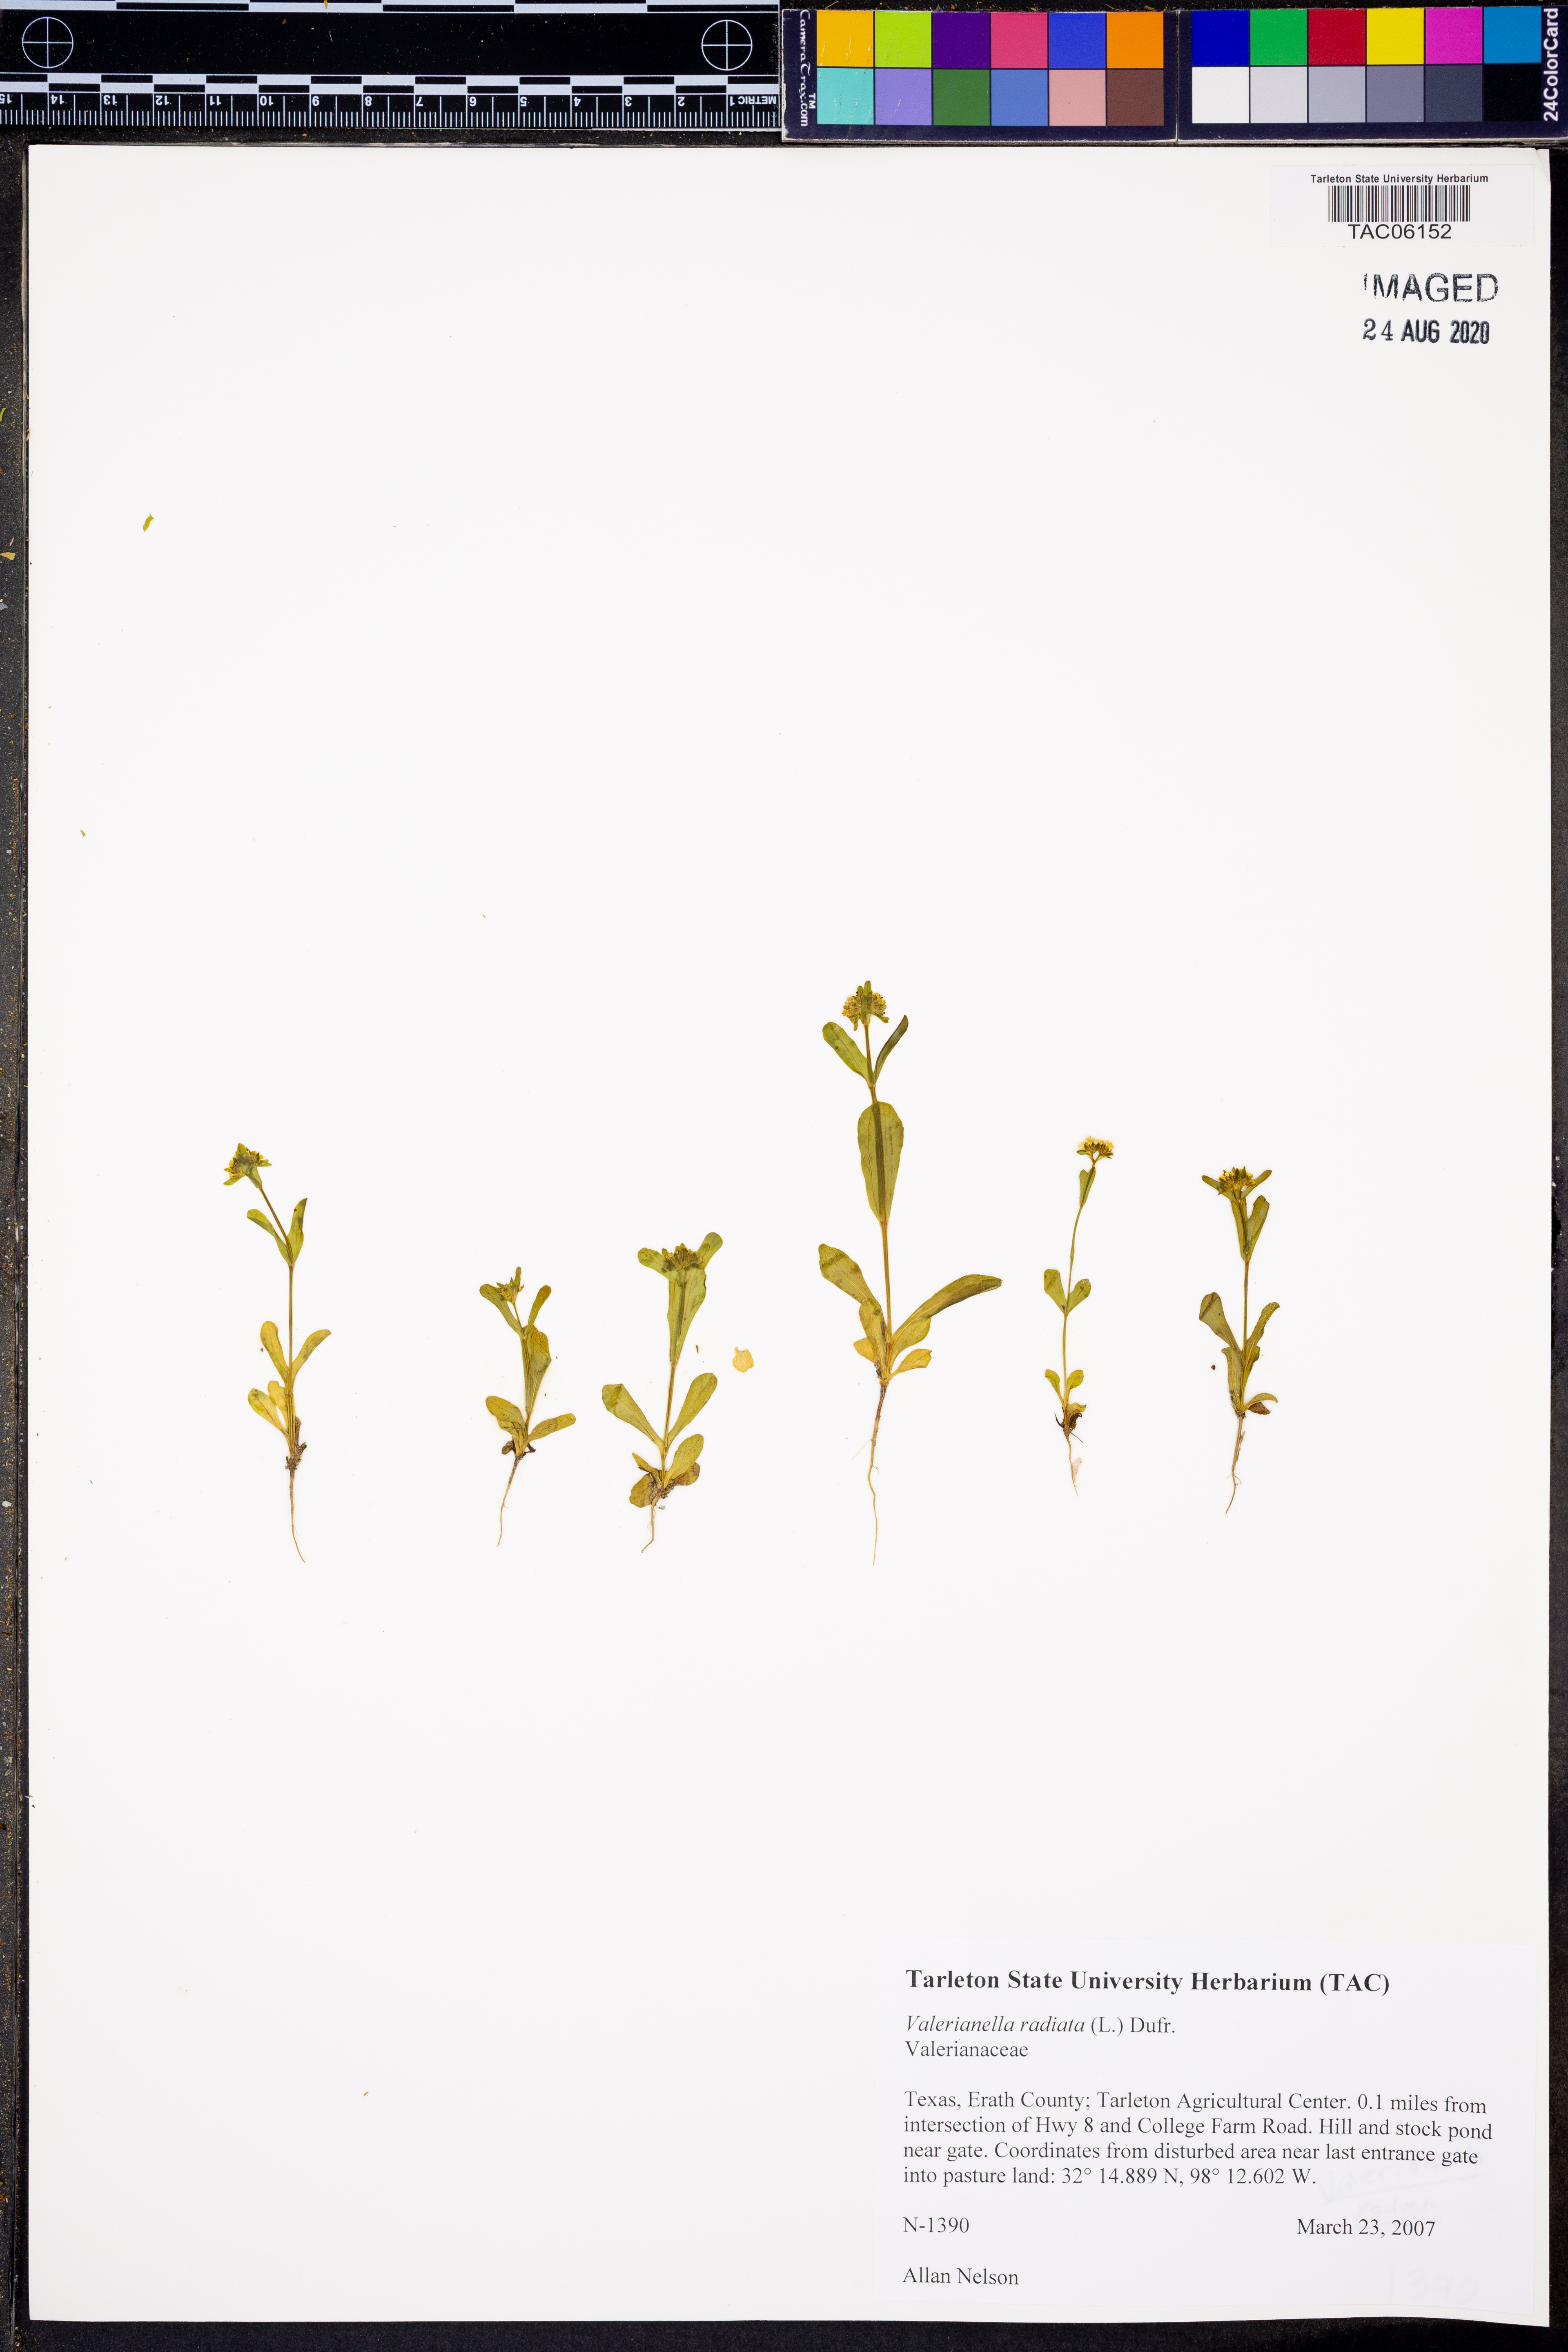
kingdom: Plantae
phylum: Tracheophyta
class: Magnoliopsida
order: Dipsacales
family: Caprifoliaceae
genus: Valerianella
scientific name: Valerianella radiata
